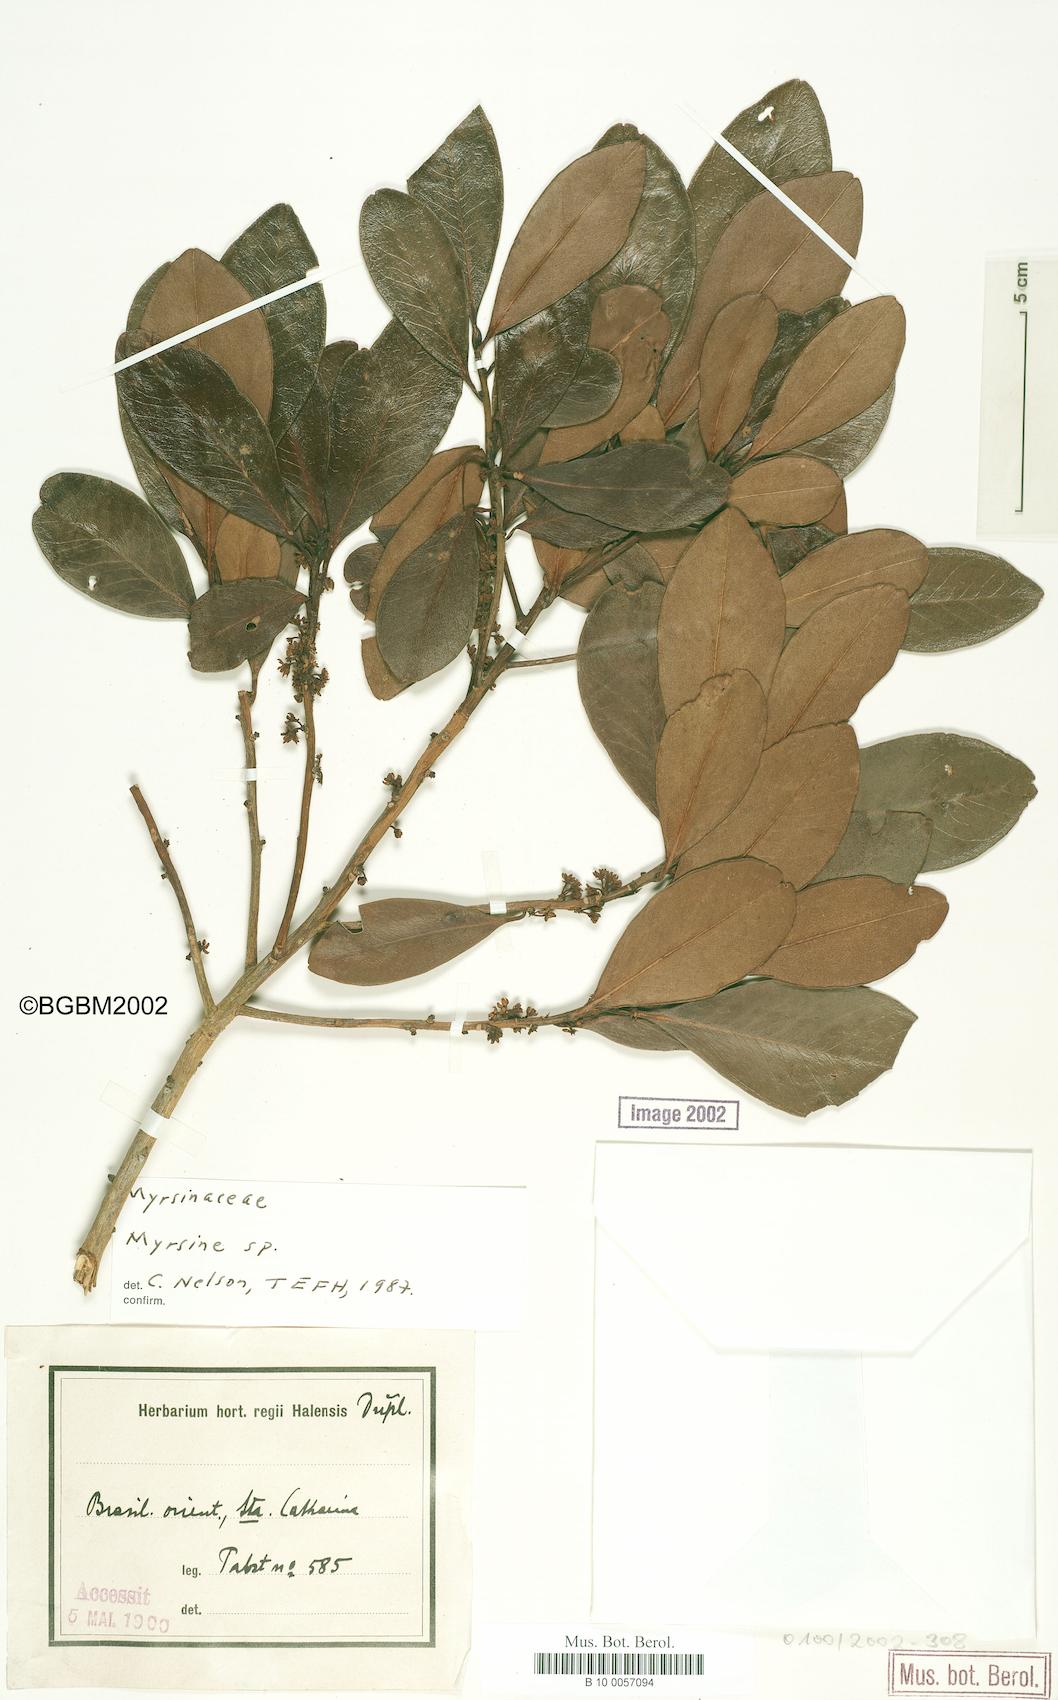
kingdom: Plantae
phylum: Tracheophyta
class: Magnoliopsida
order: Ericales
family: Primulaceae
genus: Myrsine
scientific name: Myrsine
